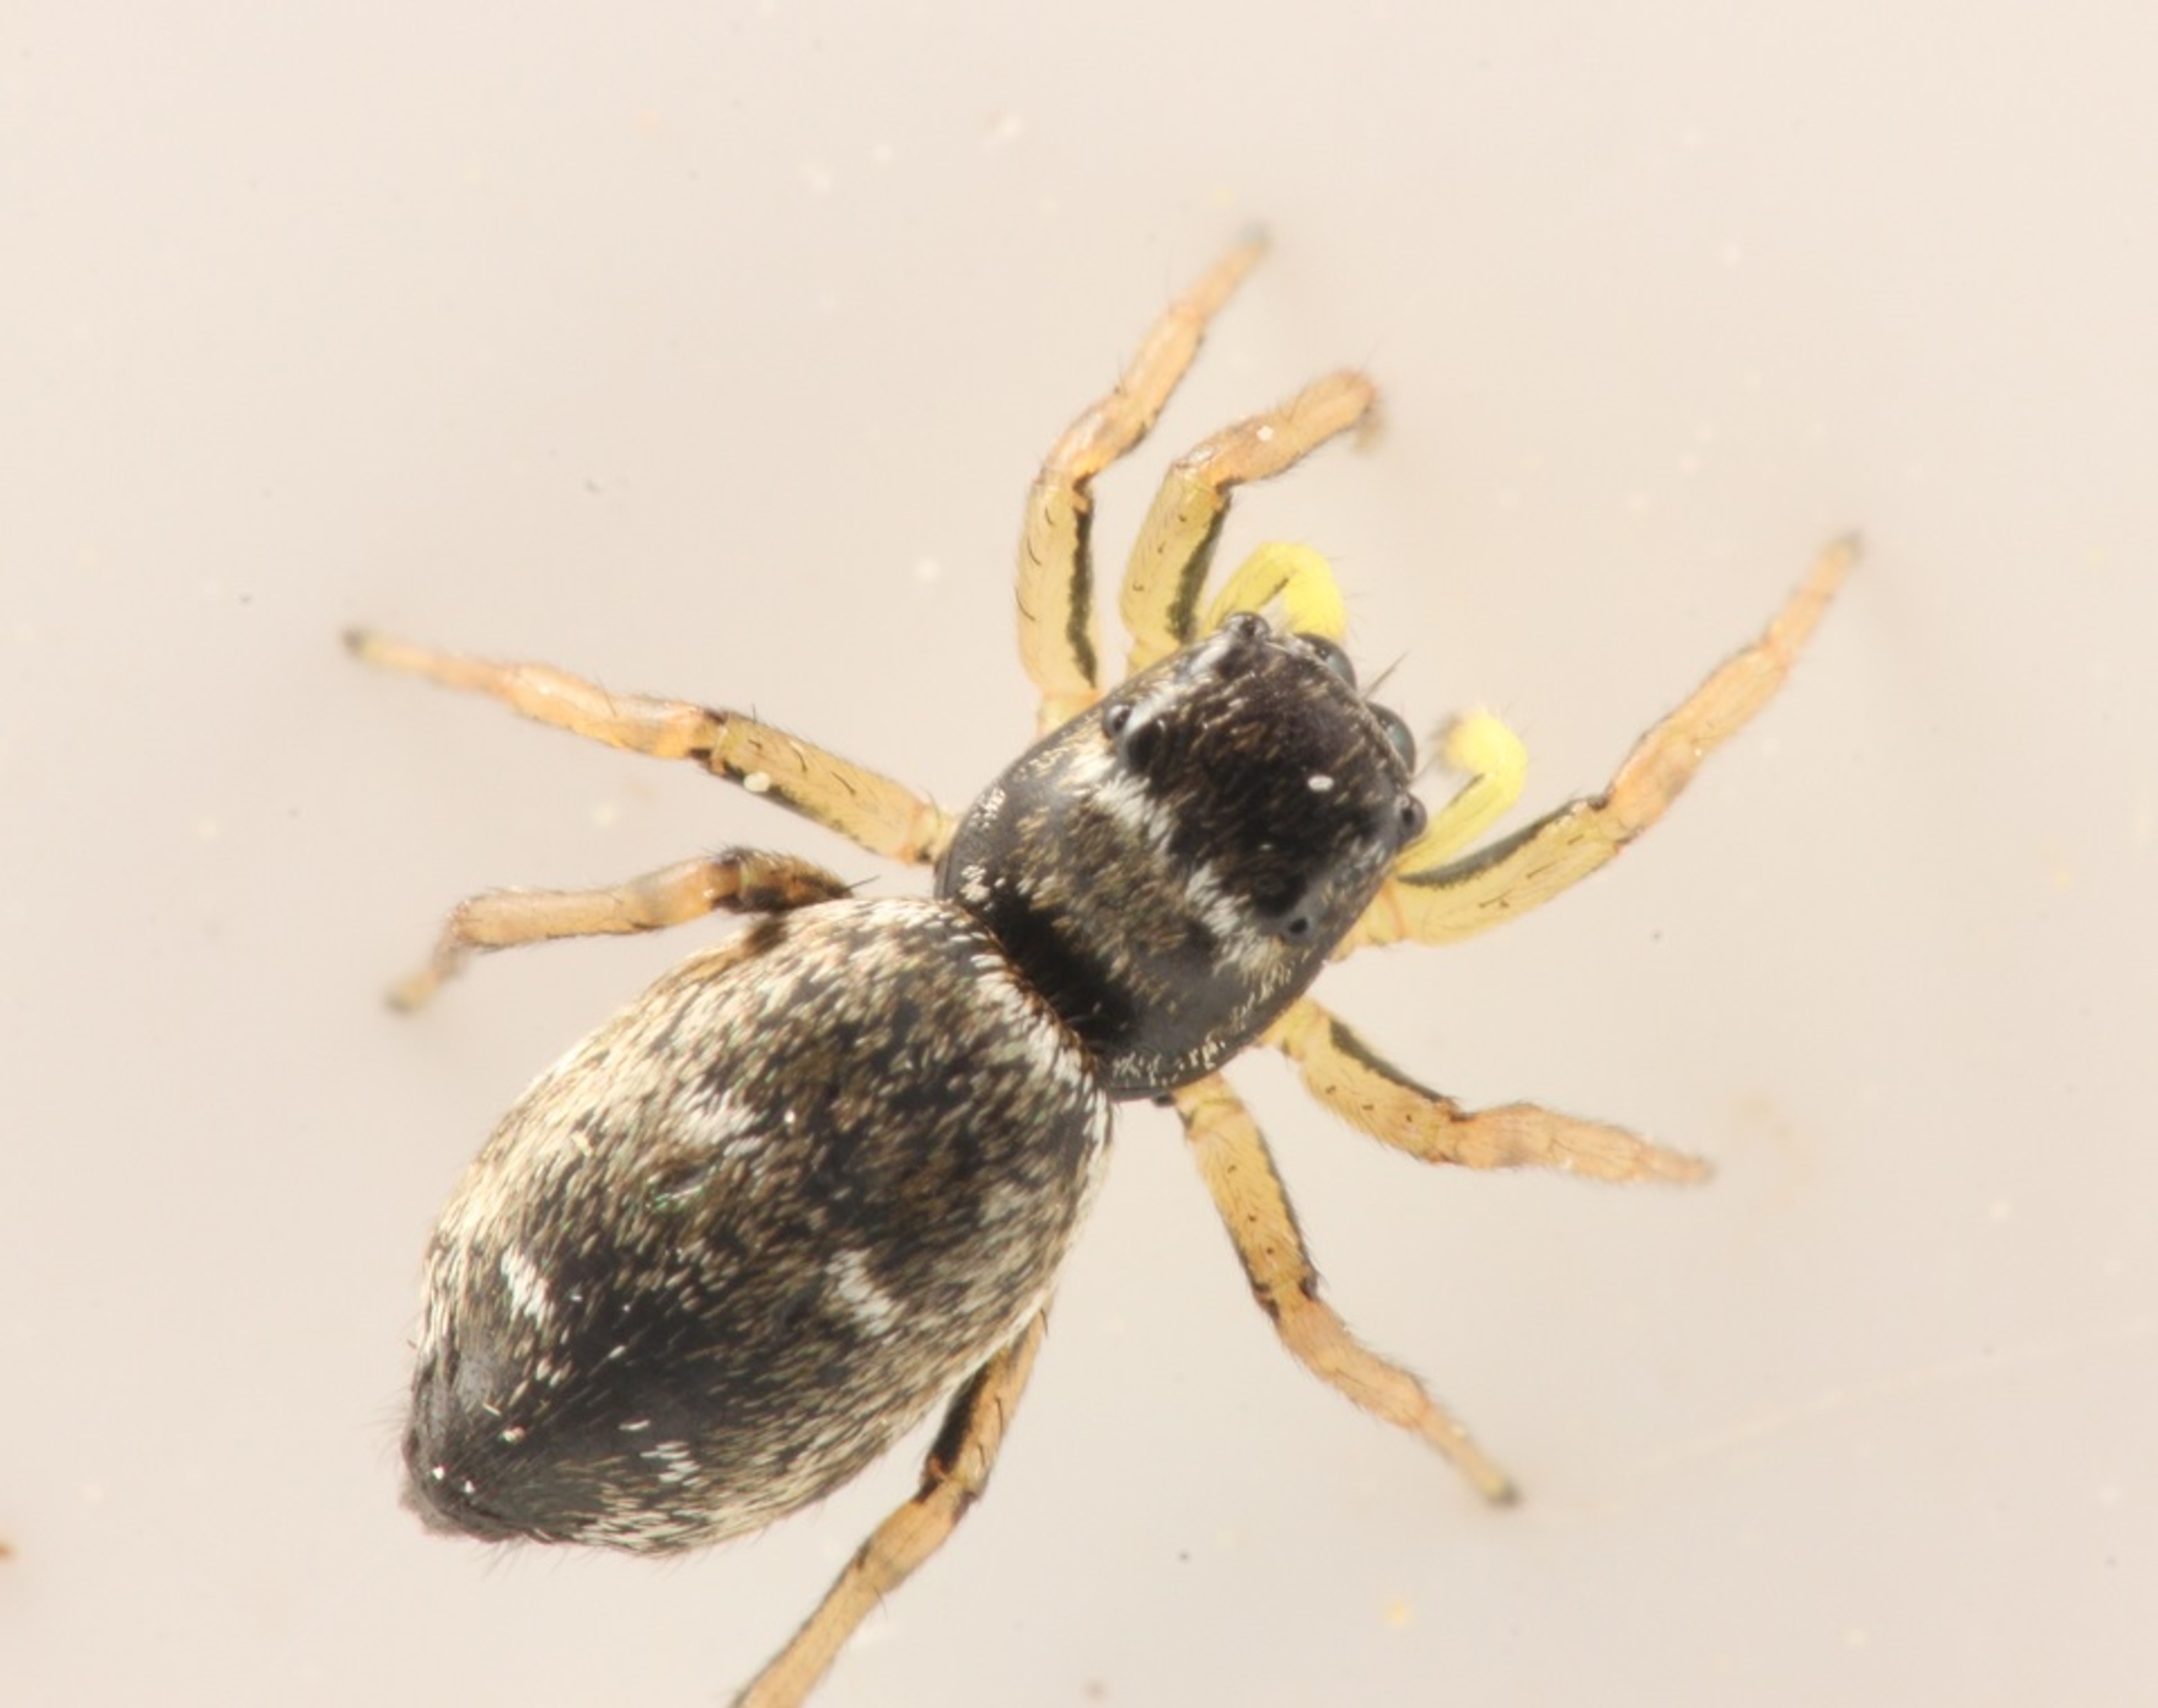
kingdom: Animalia
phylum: Arthropoda
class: Arachnida
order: Araneae
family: Salticidae
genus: Heliophanus
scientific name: Heliophanus
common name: Sortspringerslægten
